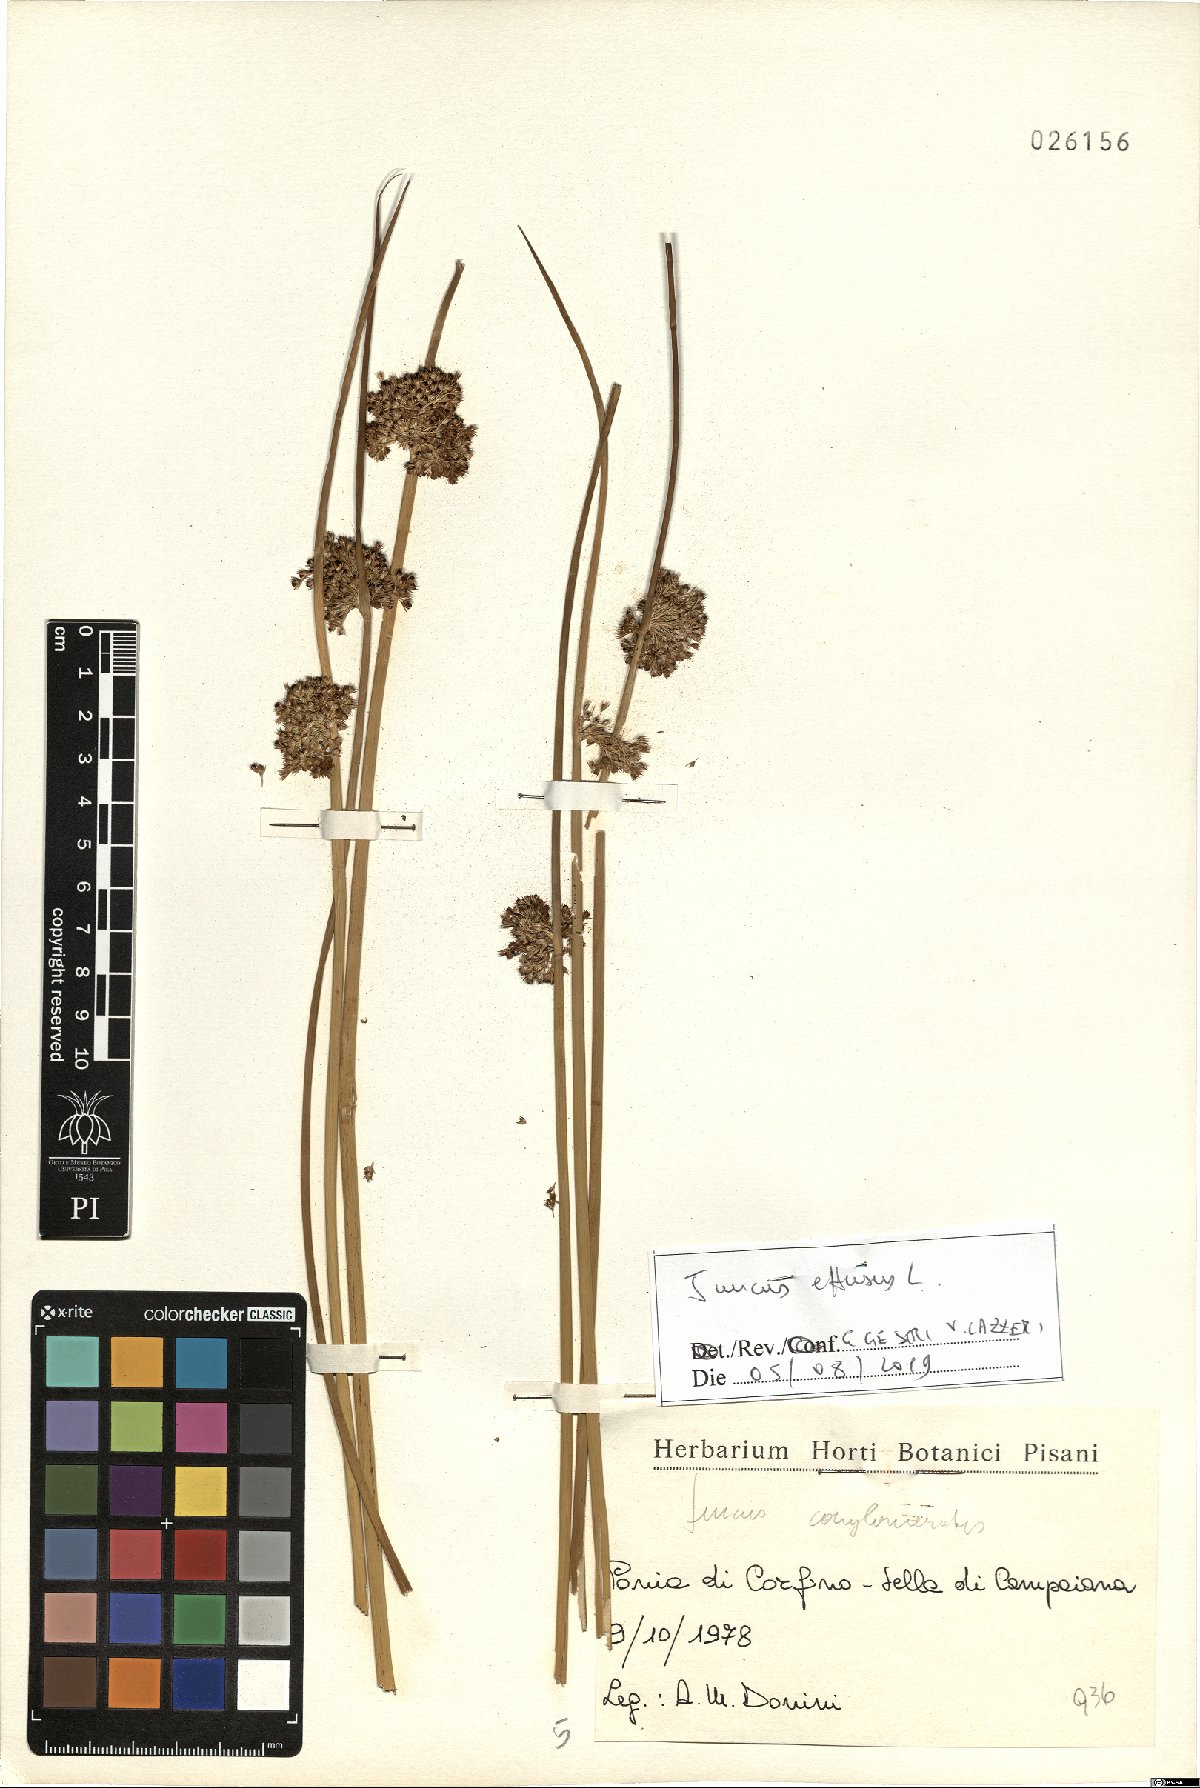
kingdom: Plantae
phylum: Tracheophyta
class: Liliopsida
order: Poales
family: Juncaceae
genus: Juncus
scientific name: Juncus effusus
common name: Soft rush
